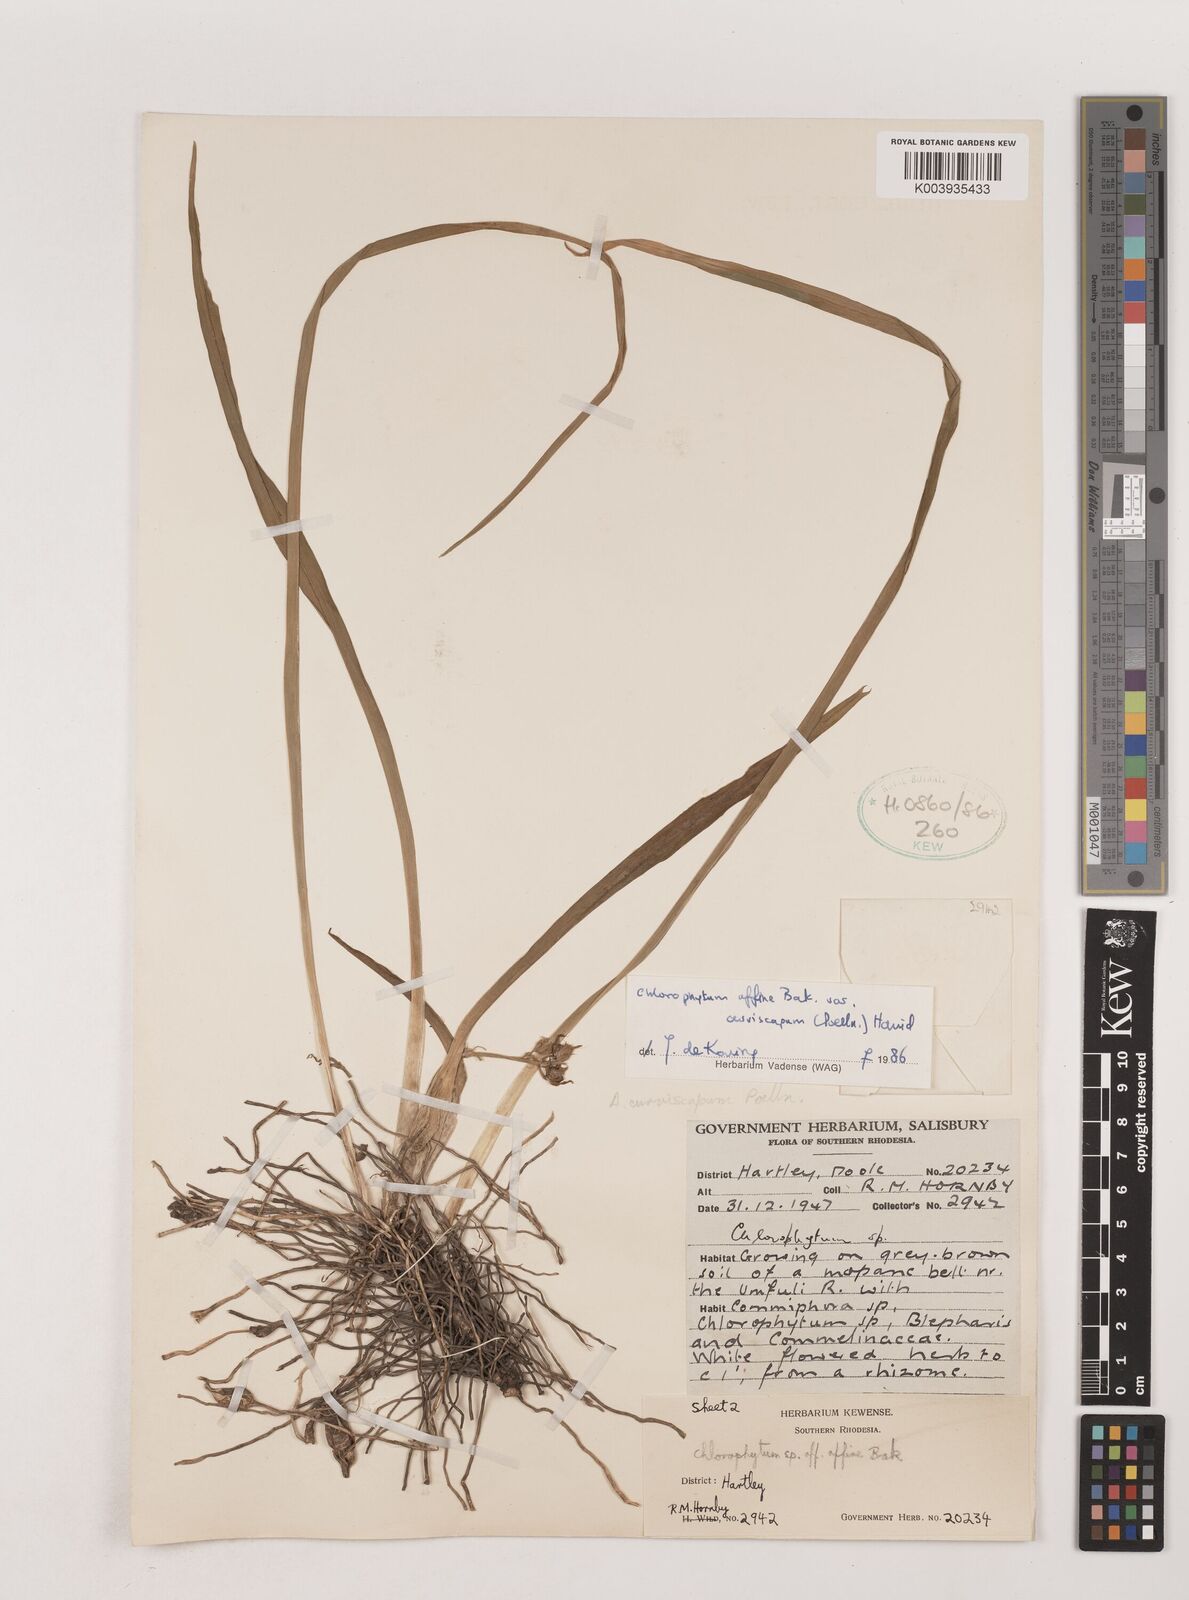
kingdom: Plantae
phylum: Tracheophyta
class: Liliopsida
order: Asparagales
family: Asparagaceae
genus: Chlorophytum
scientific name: Chlorophytum tordense
